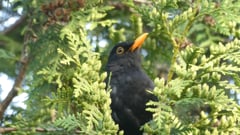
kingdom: Animalia
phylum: Chordata
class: Aves
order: Passeriformes
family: Turdidae
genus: Turdus
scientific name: Turdus merula
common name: Common blackbird
